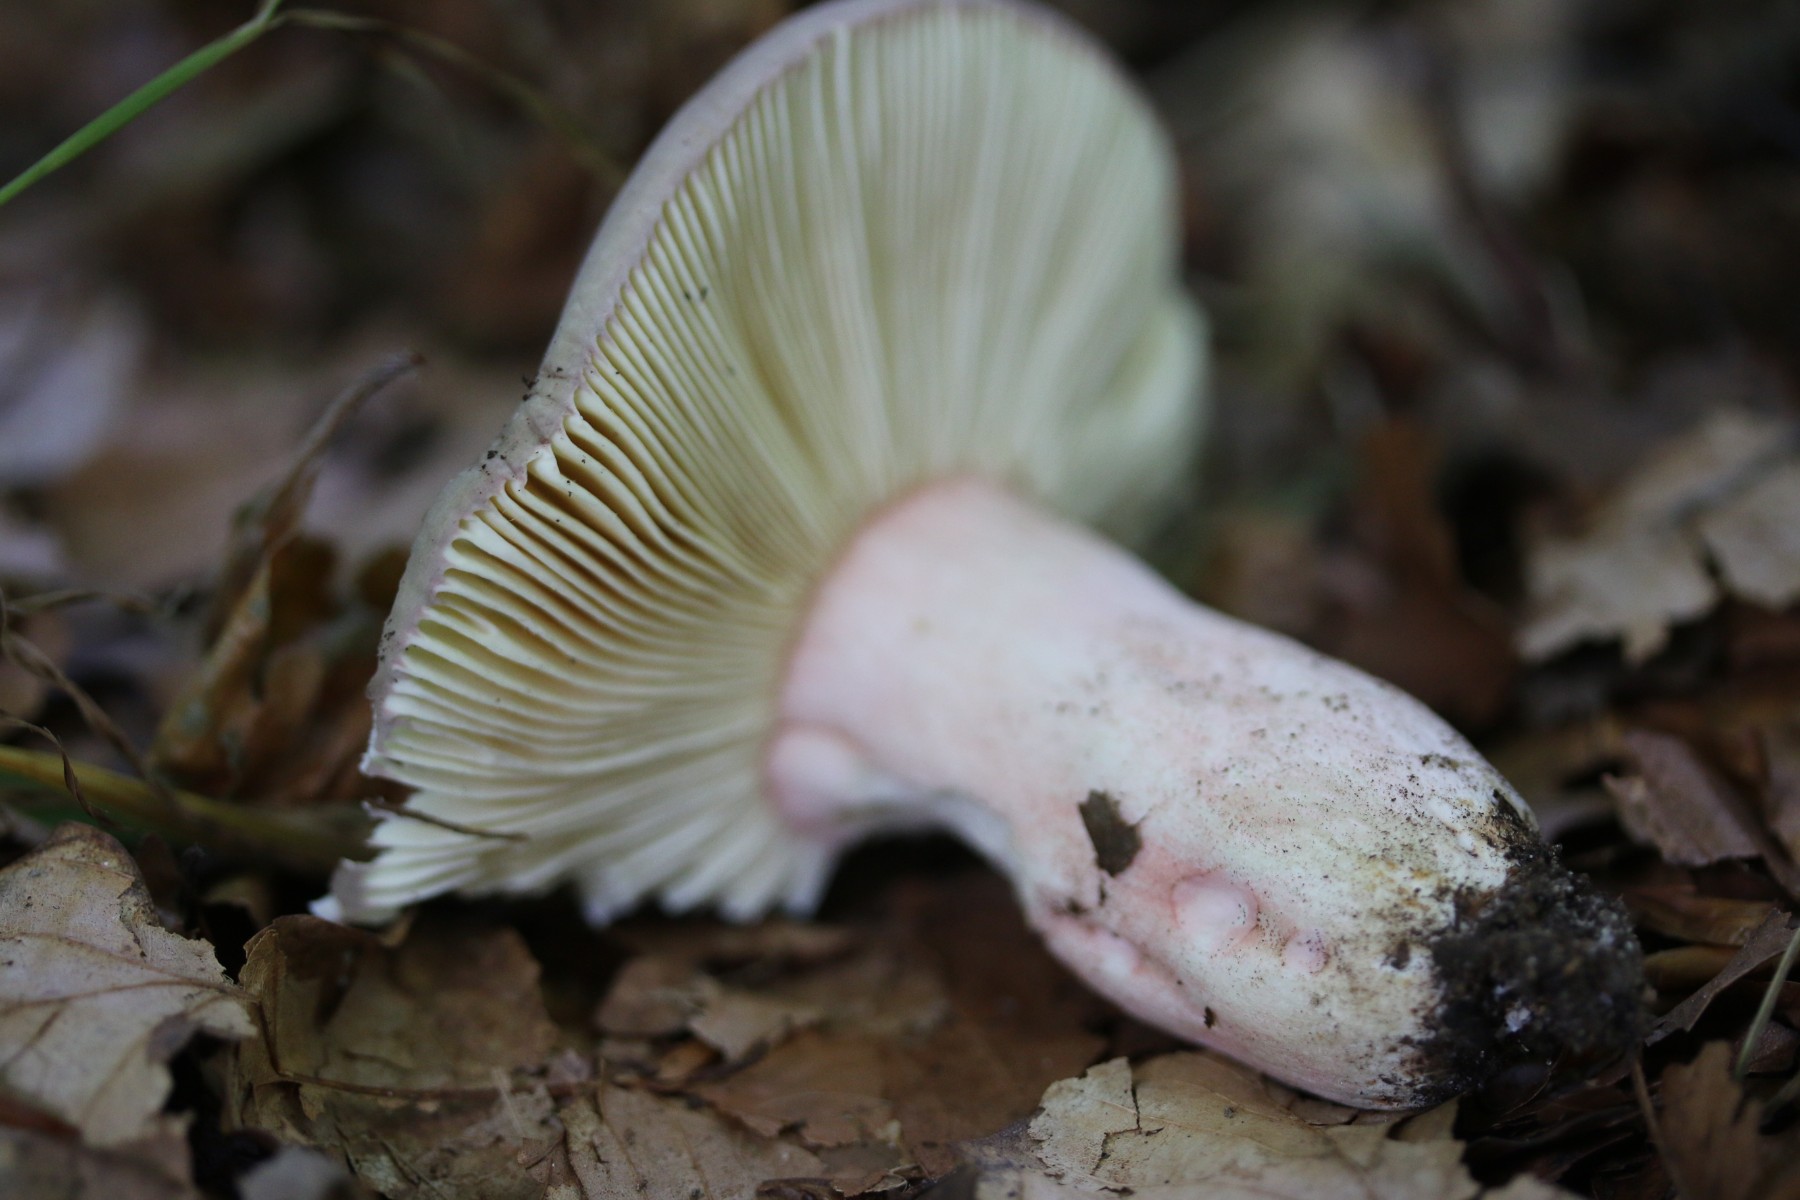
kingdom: Fungi
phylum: Basidiomycota
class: Agaricomycetes
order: Russulales
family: Russulaceae
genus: Russula
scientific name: Russula olivacea
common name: stor skørhat
